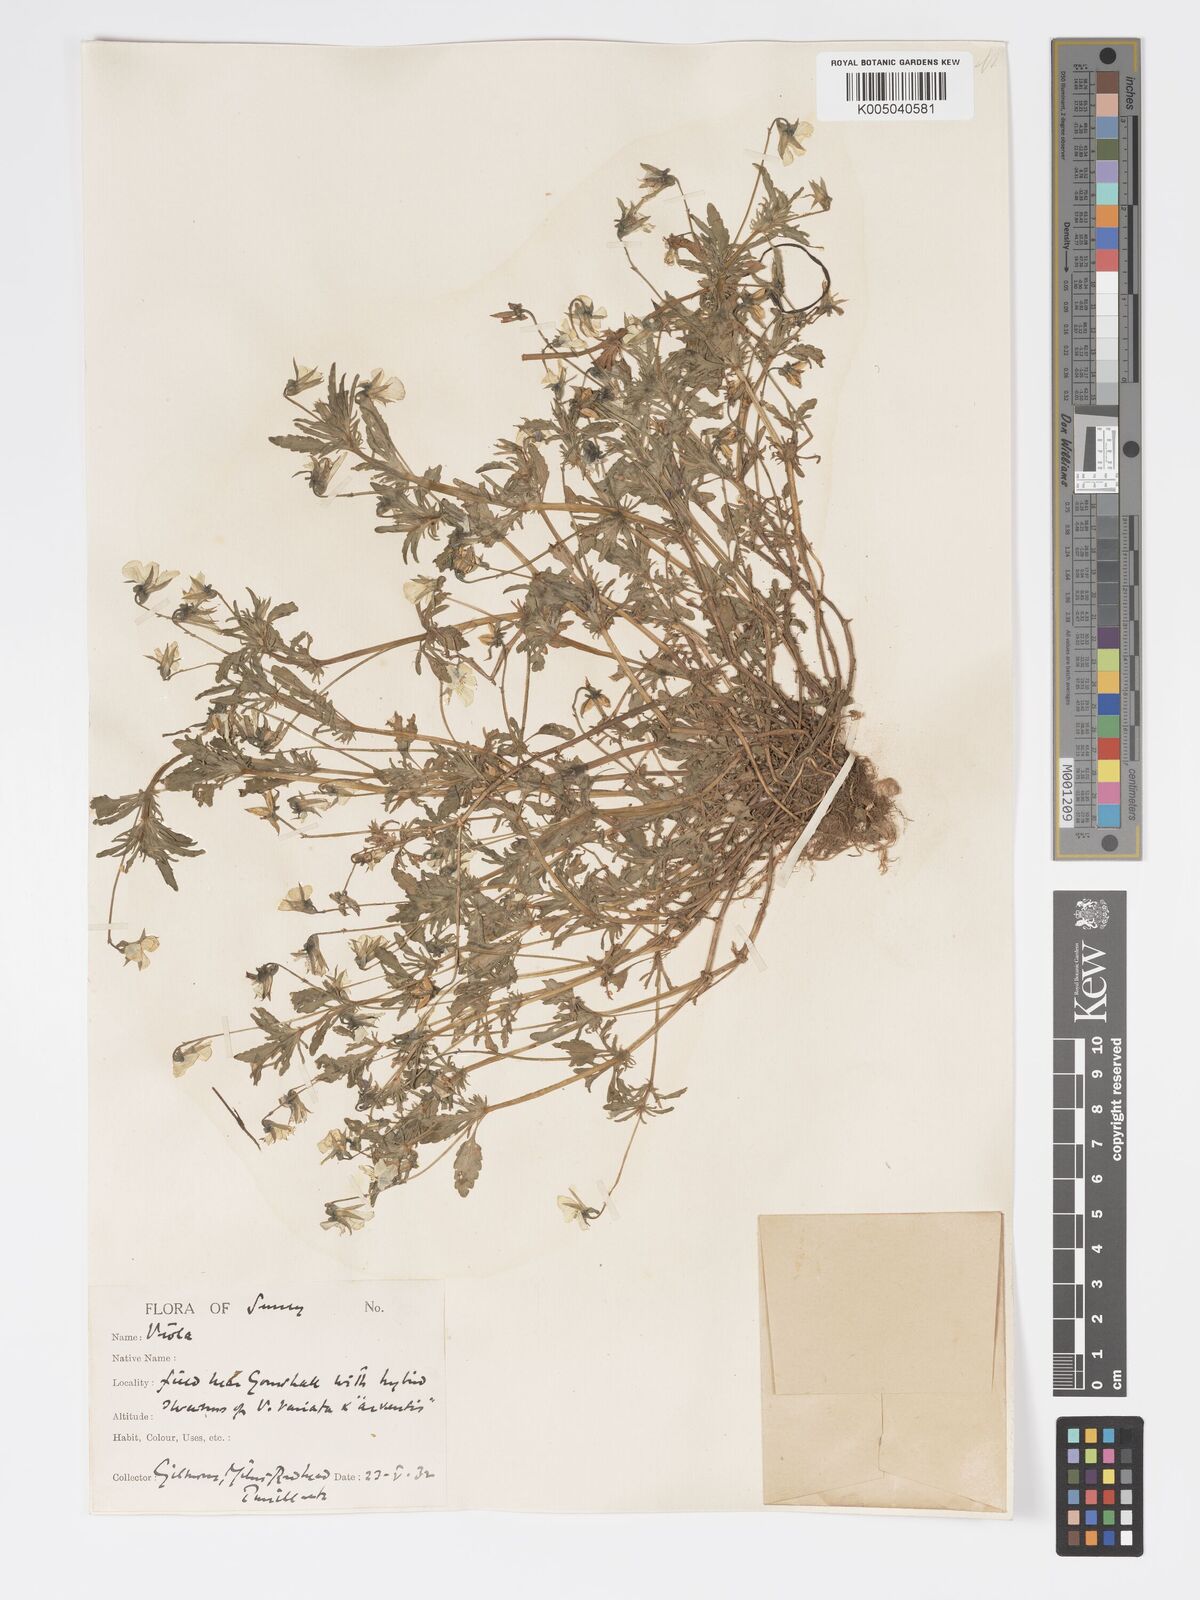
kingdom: Plantae
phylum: Tracheophyta
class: Magnoliopsida
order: Malpighiales
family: Violaceae
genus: Viola
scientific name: Viola
